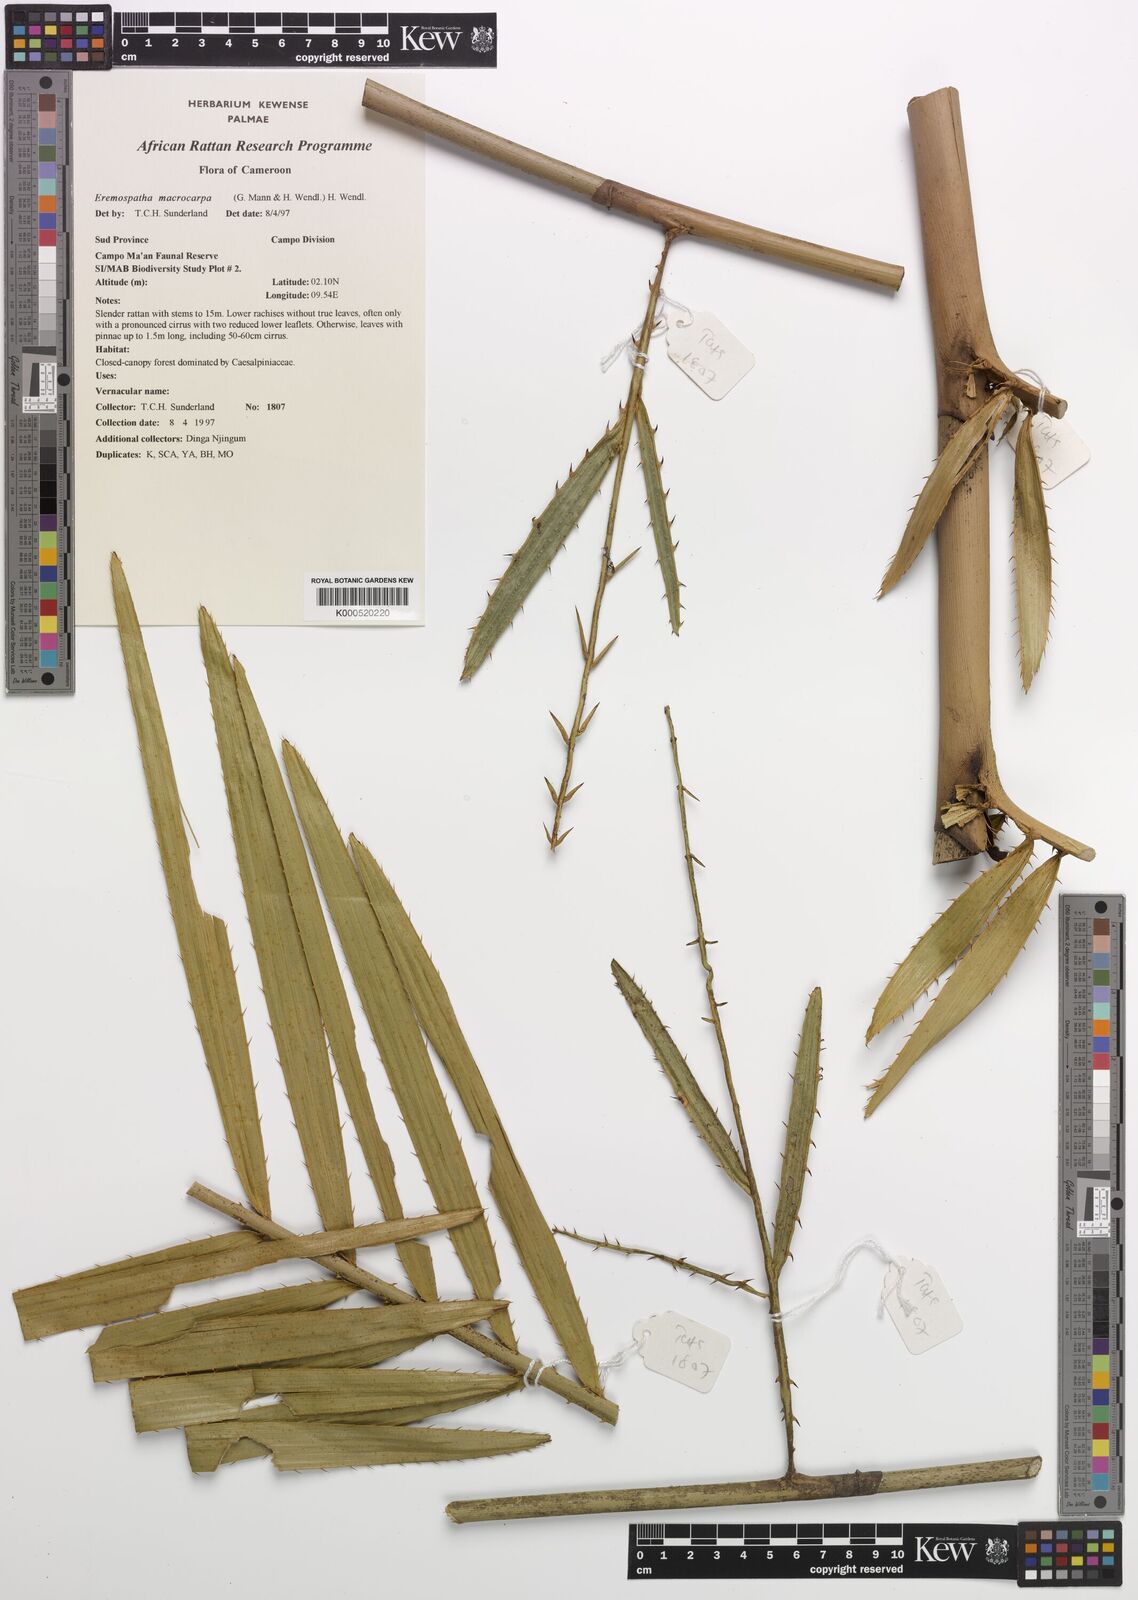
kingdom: Plantae
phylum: Tracheophyta
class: Liliopsida
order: Arecales
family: Arecaceae
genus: Eremospatha
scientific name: Eremospatha
